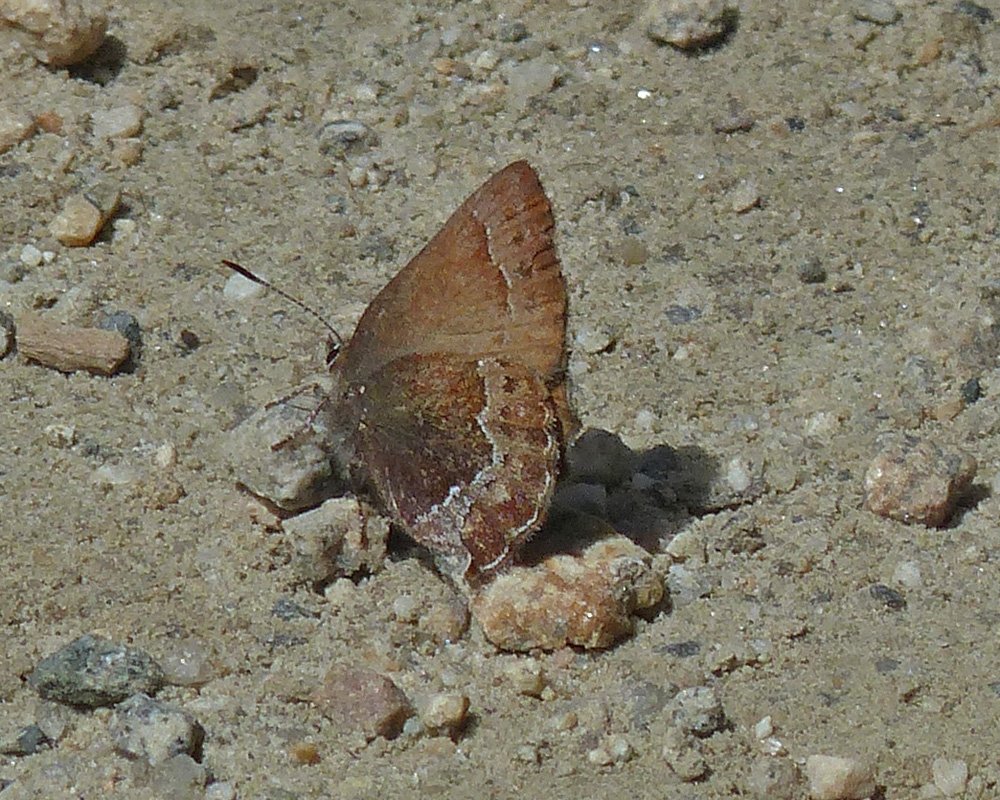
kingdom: Animalia
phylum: Arthropoda
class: Insecta
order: Lepidoptera
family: Lycaenidae
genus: Callophrys
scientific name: Callophrys mossii
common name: Moss' Elfin
